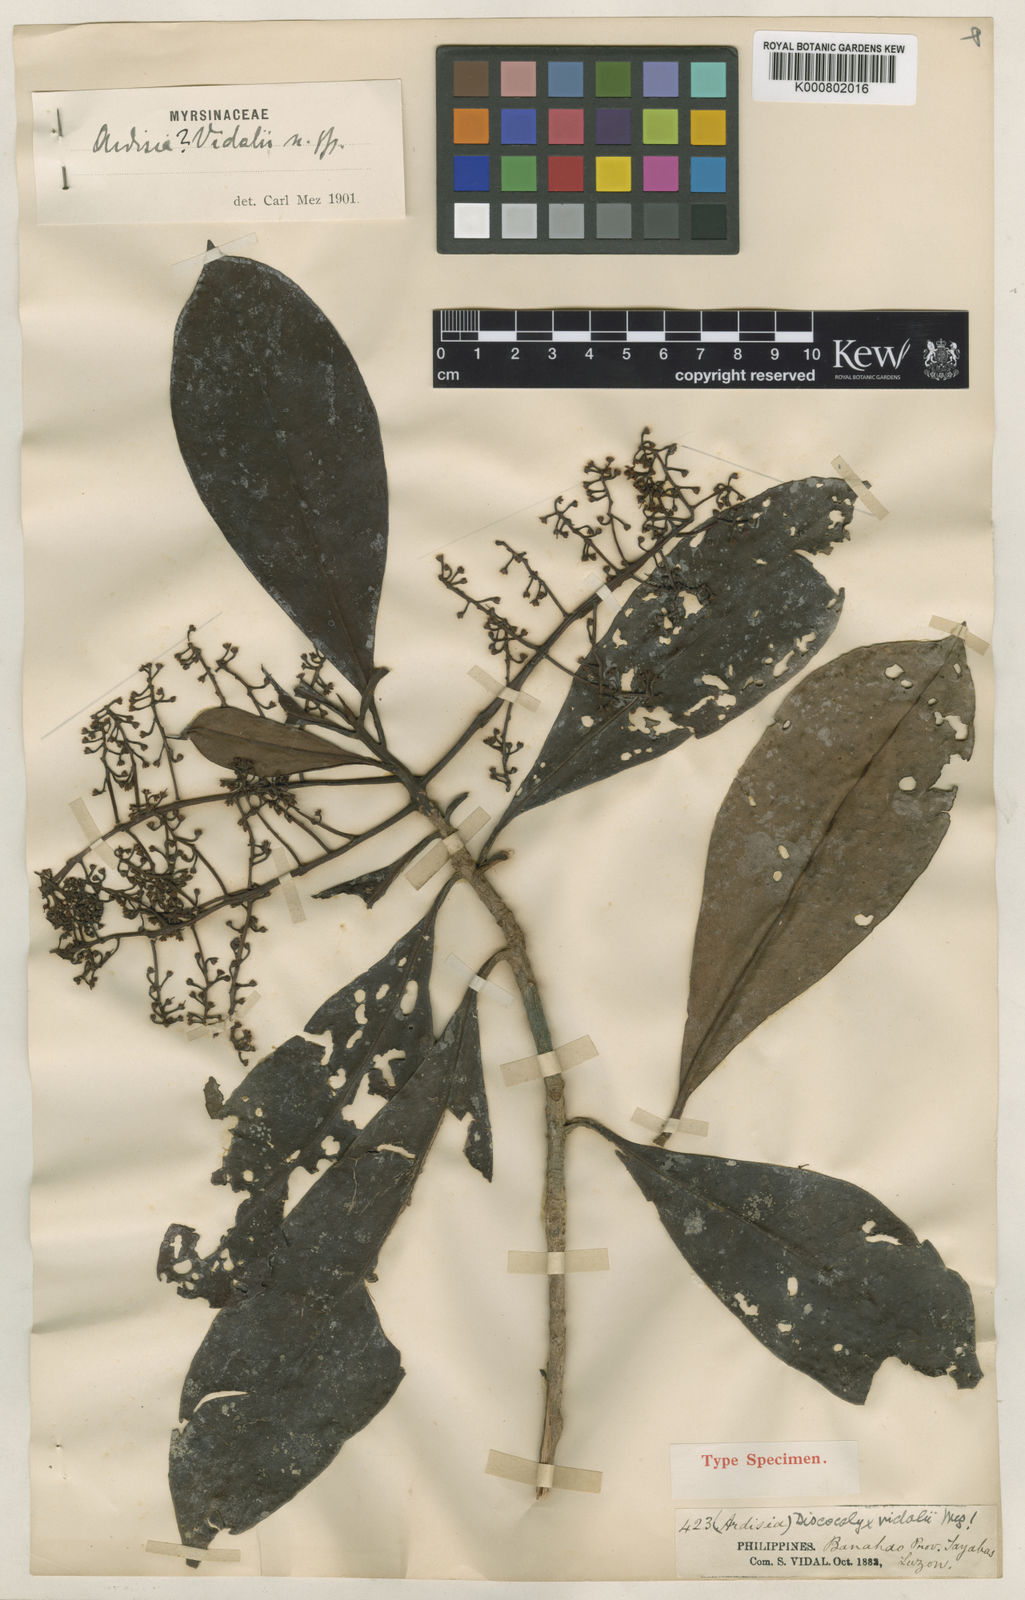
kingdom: Plantae
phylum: Tracheophyta
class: Magnoliopsida
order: Ericales
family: Primulaceae
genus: Discocalyx
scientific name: Discocalyx vidalii
